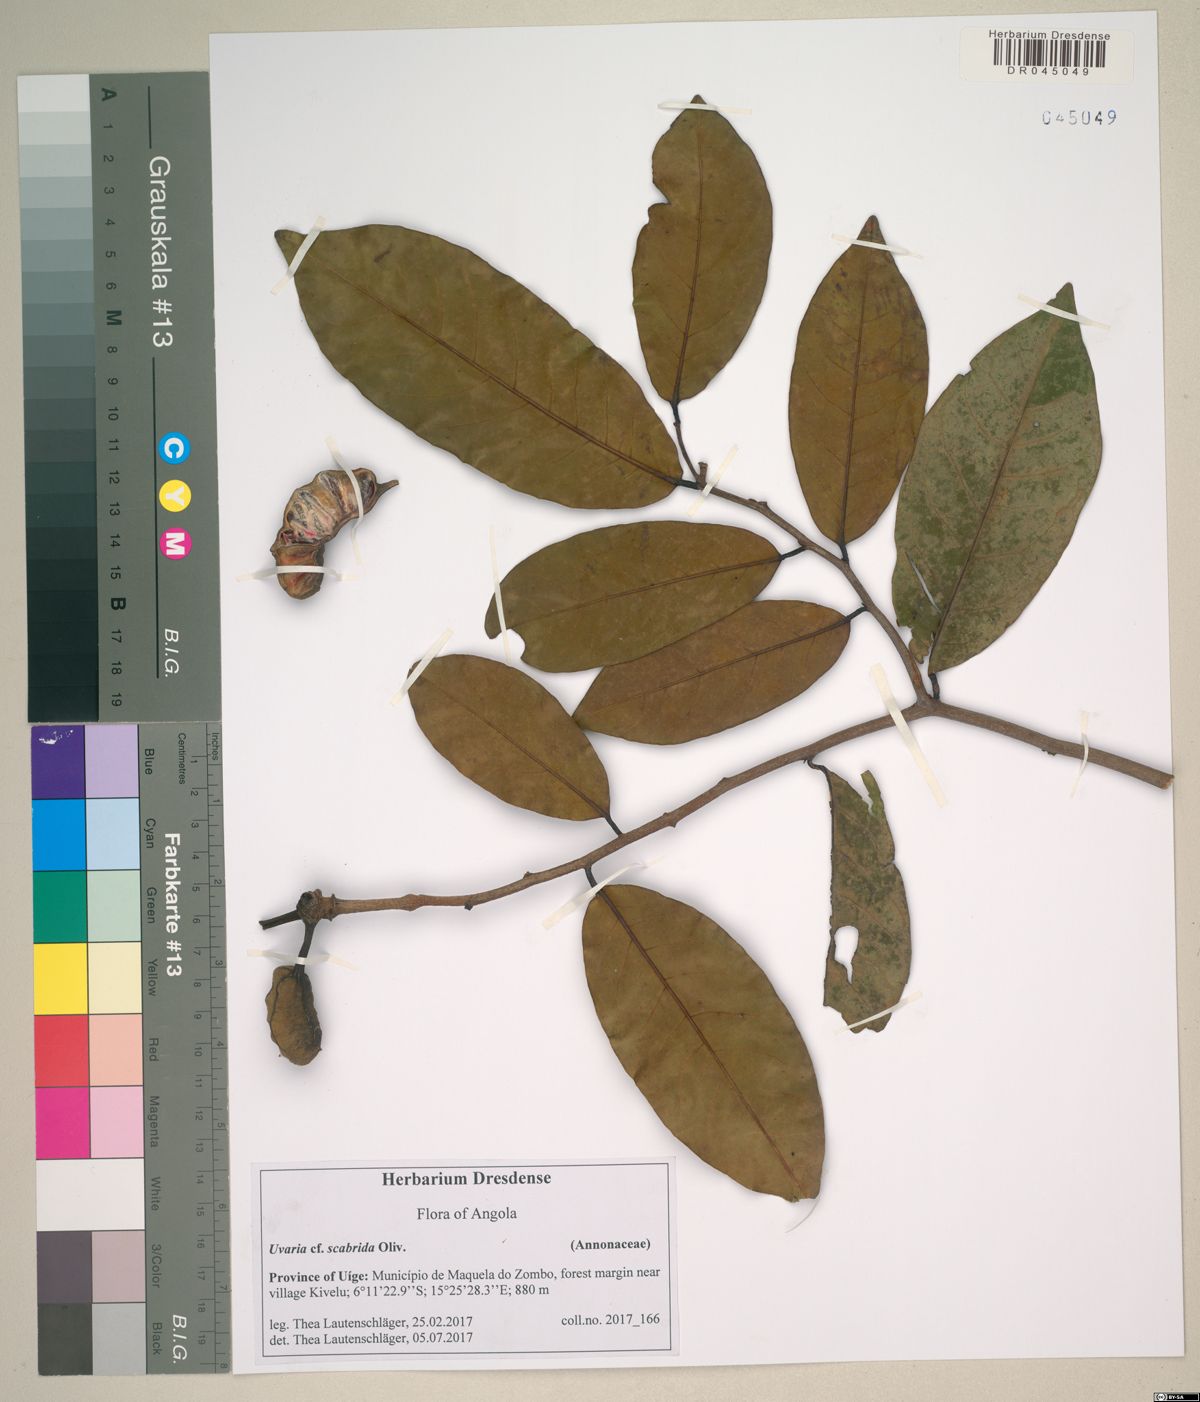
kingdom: Plantae
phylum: Tracheophyta
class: Magnoliopsida
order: Magnoliales
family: Annonaceae
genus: Uvaria
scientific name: Uvaria mendesii
